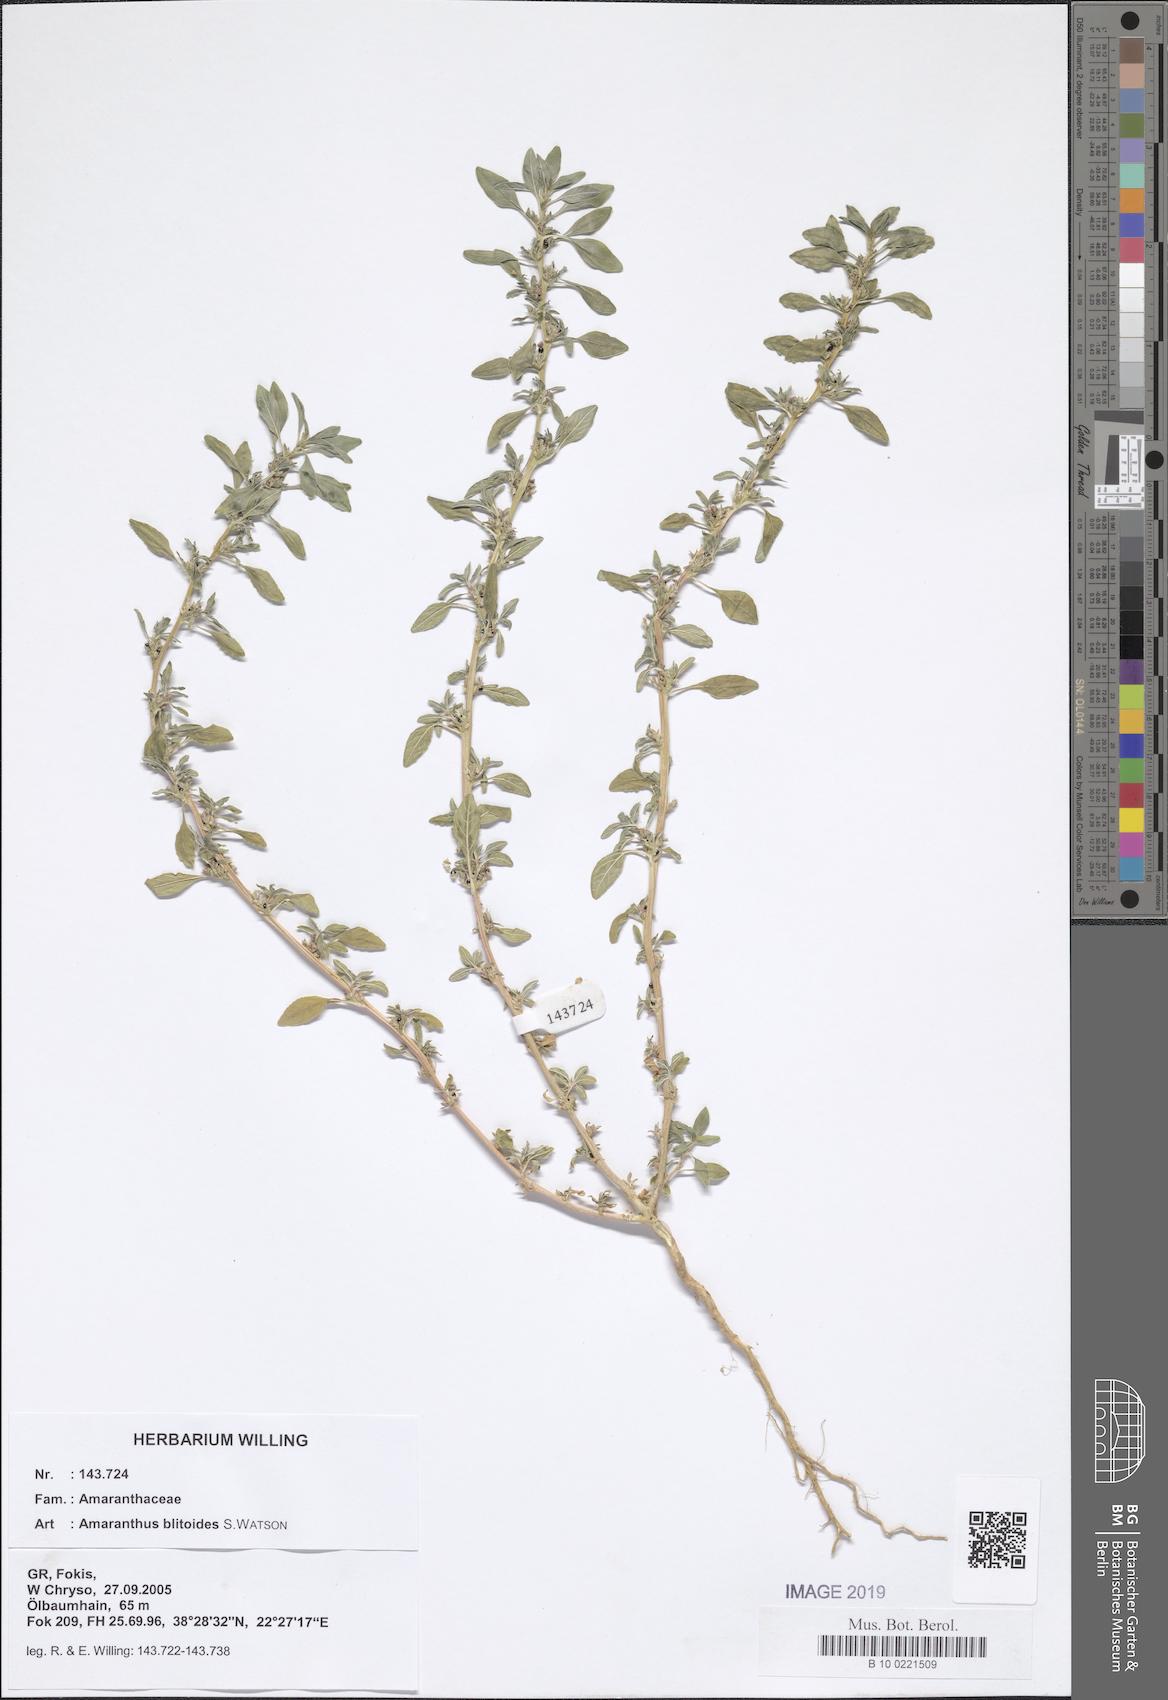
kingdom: Plantae
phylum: Tracheophyta
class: Magnoliopsida
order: Caryophyllales
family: Amaranthaceae
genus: Amaranthus
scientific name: Amaranthus blitoides
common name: Prostrate pigweed
